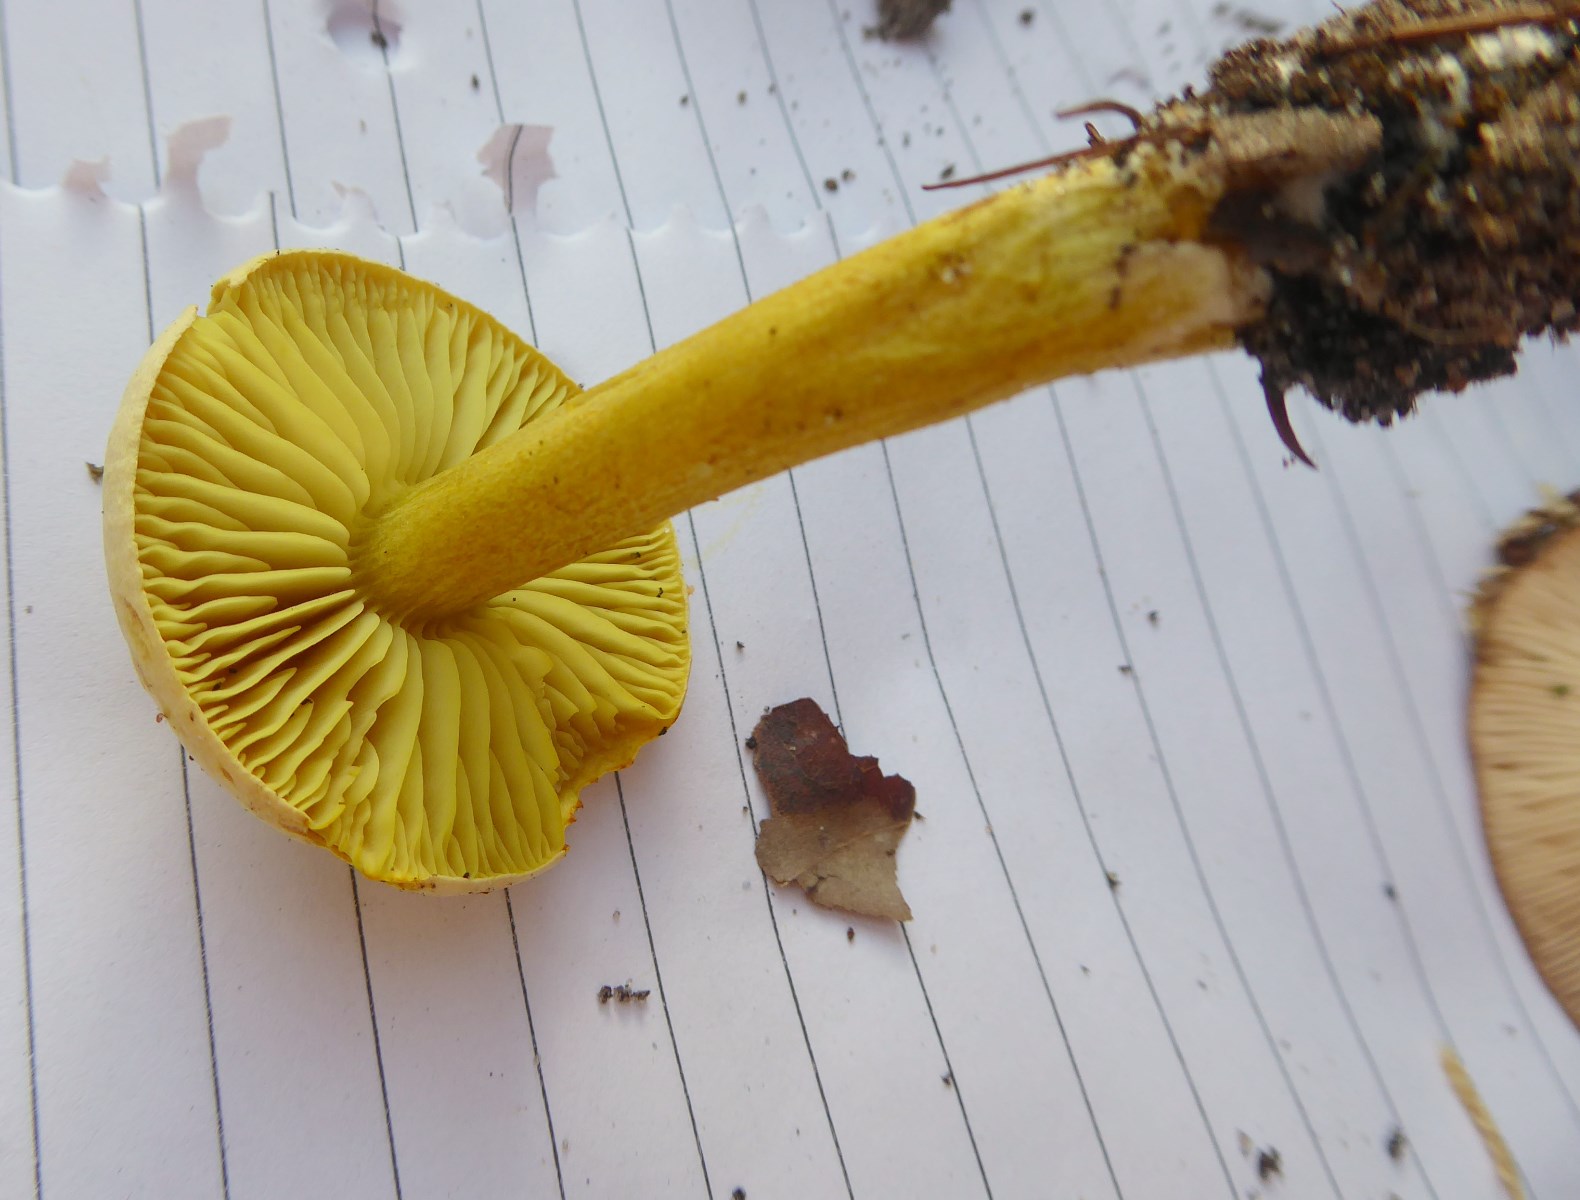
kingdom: Fungi
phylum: Basidiomycota
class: Agaricomycetes
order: Agaricales
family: Tricholomataceae
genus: Tricholoma
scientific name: Tricholoma sulphureum
